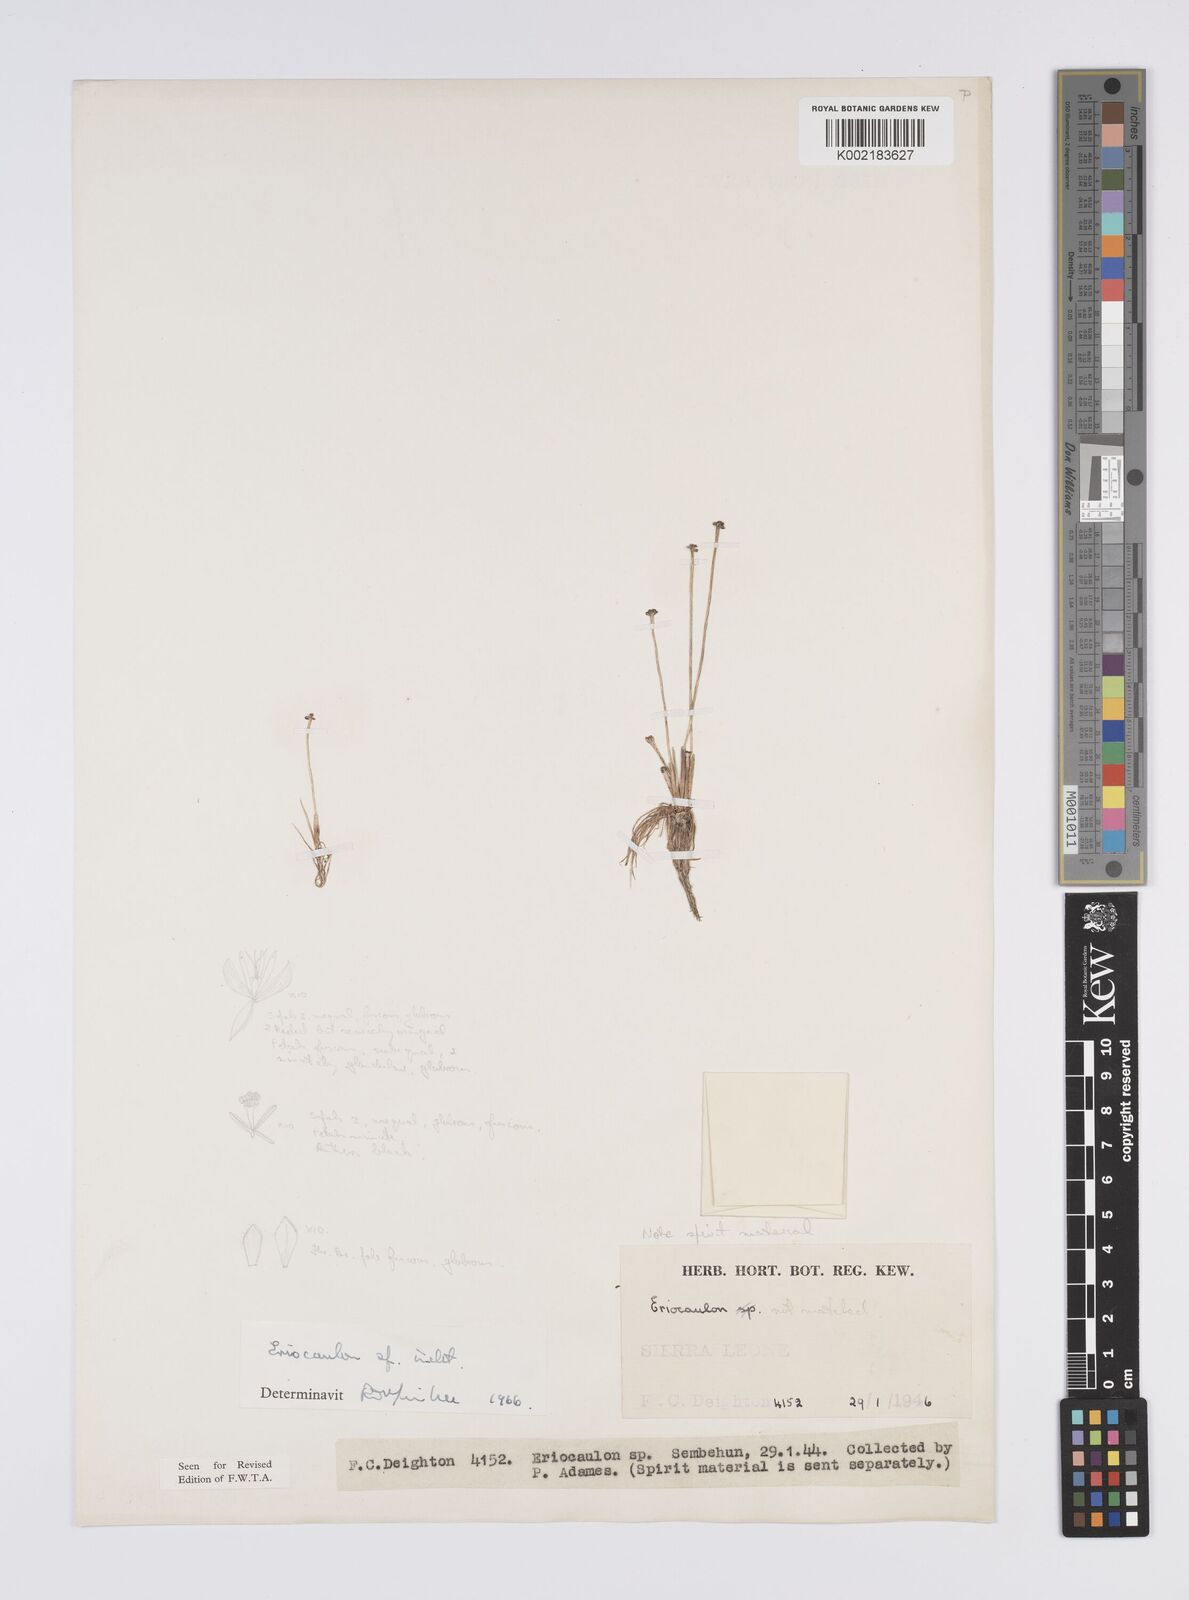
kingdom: Plantae
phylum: Tracheophyta
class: Liliopsida
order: Poales
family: Eriocaulaceae
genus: Eriocaulon
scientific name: Eriocaulon
